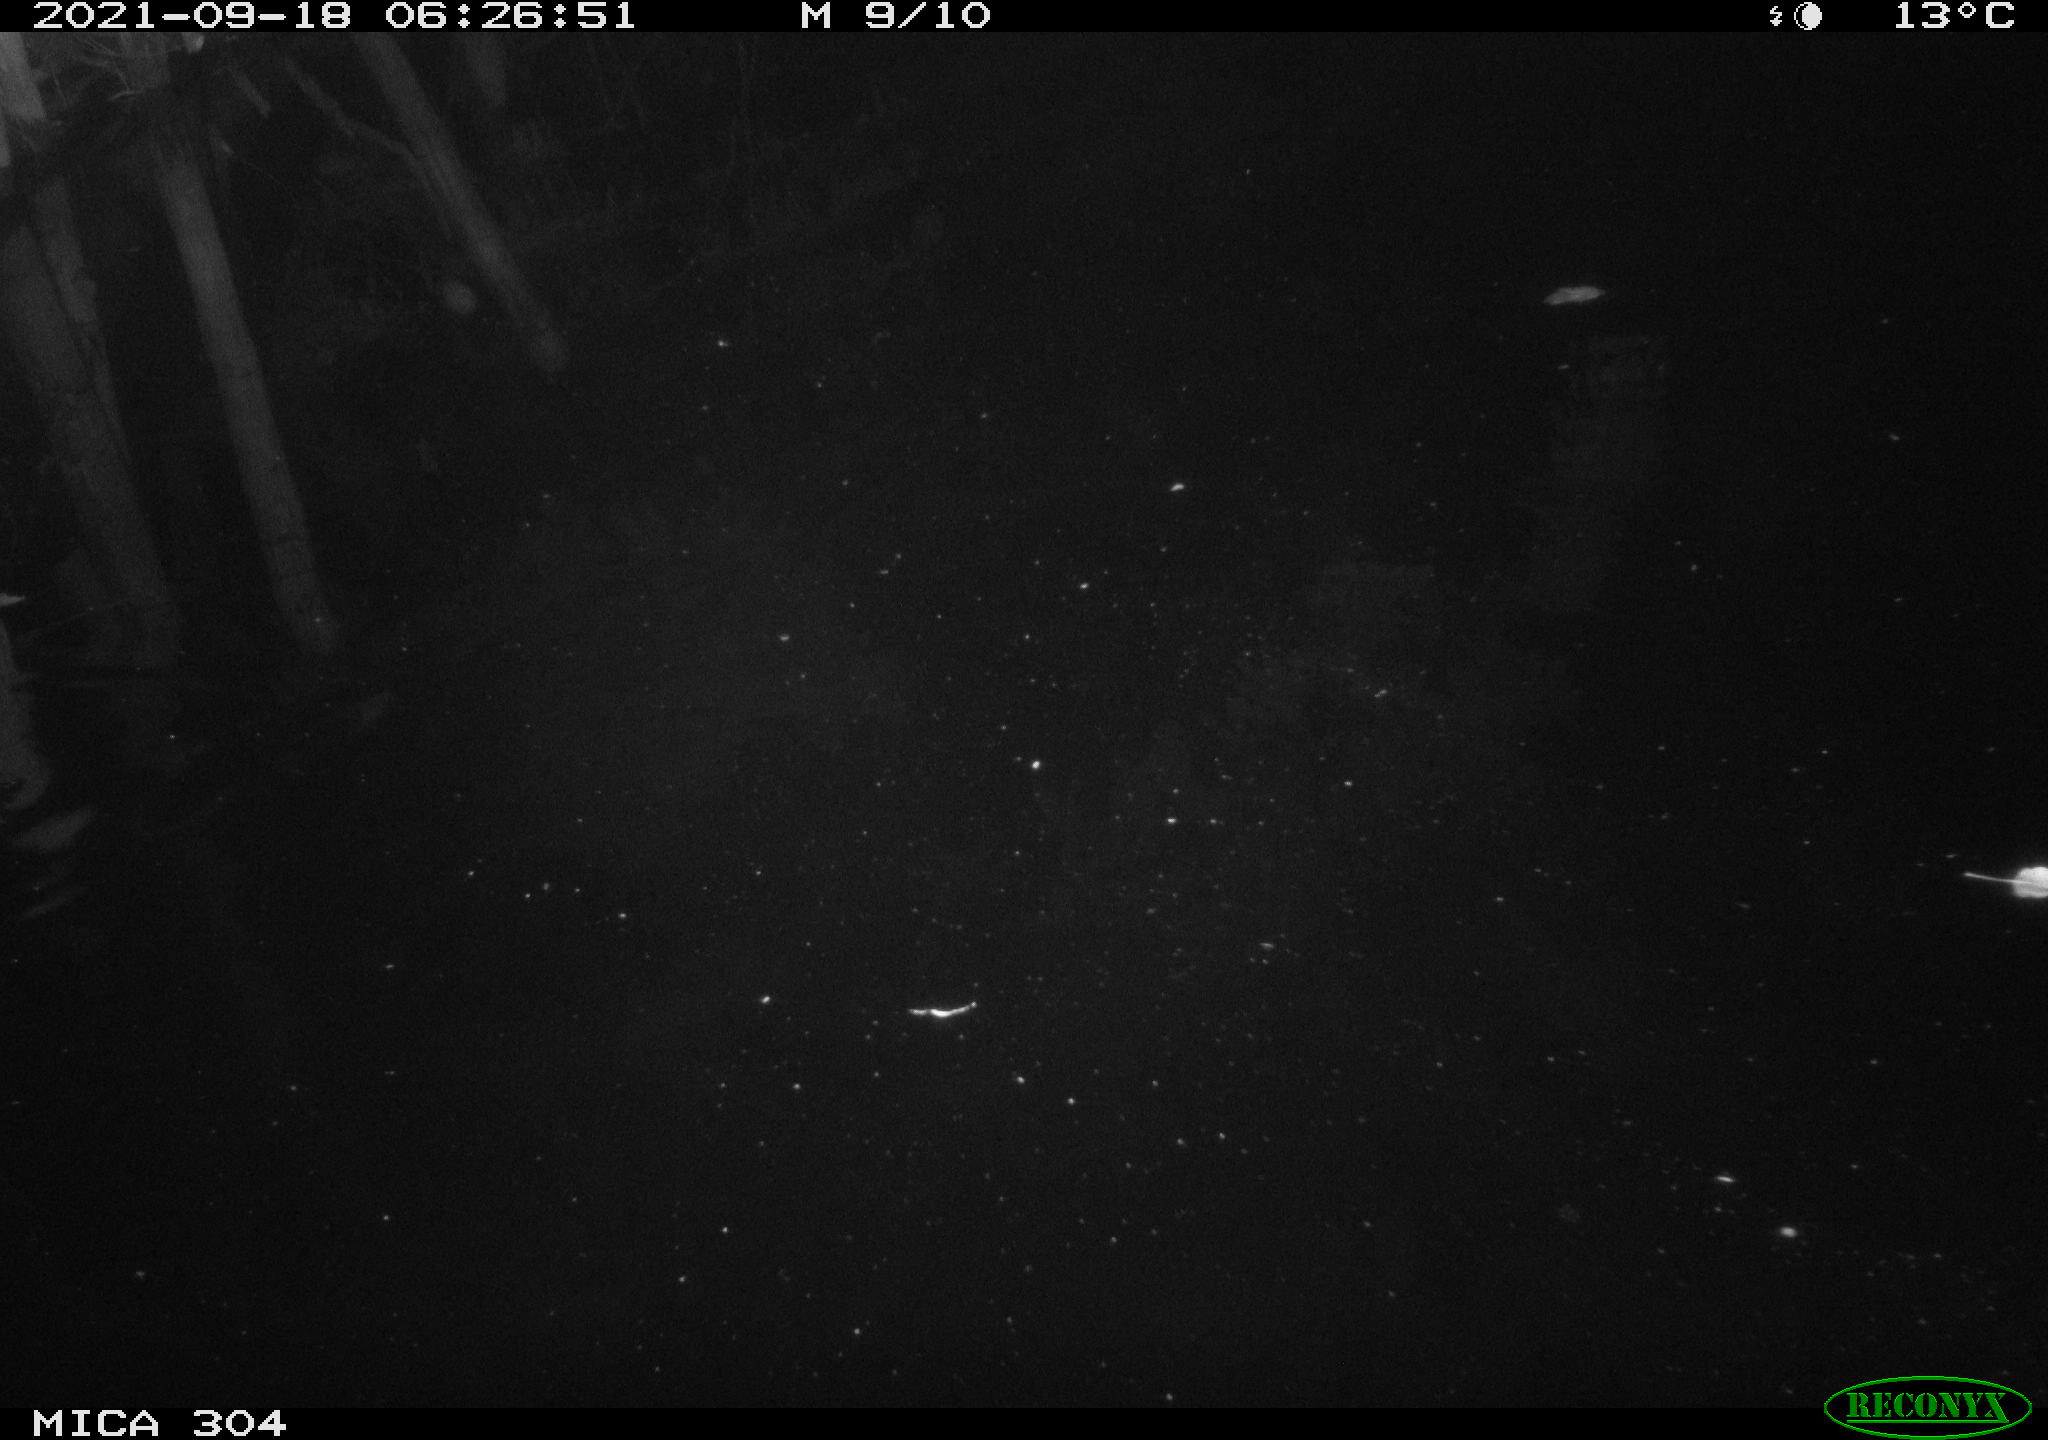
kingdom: Animalia
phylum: Chordata
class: Mammalia
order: Rodentia
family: Muridae
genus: Rattus
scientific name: Rattus norvegicus
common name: Brown rat
